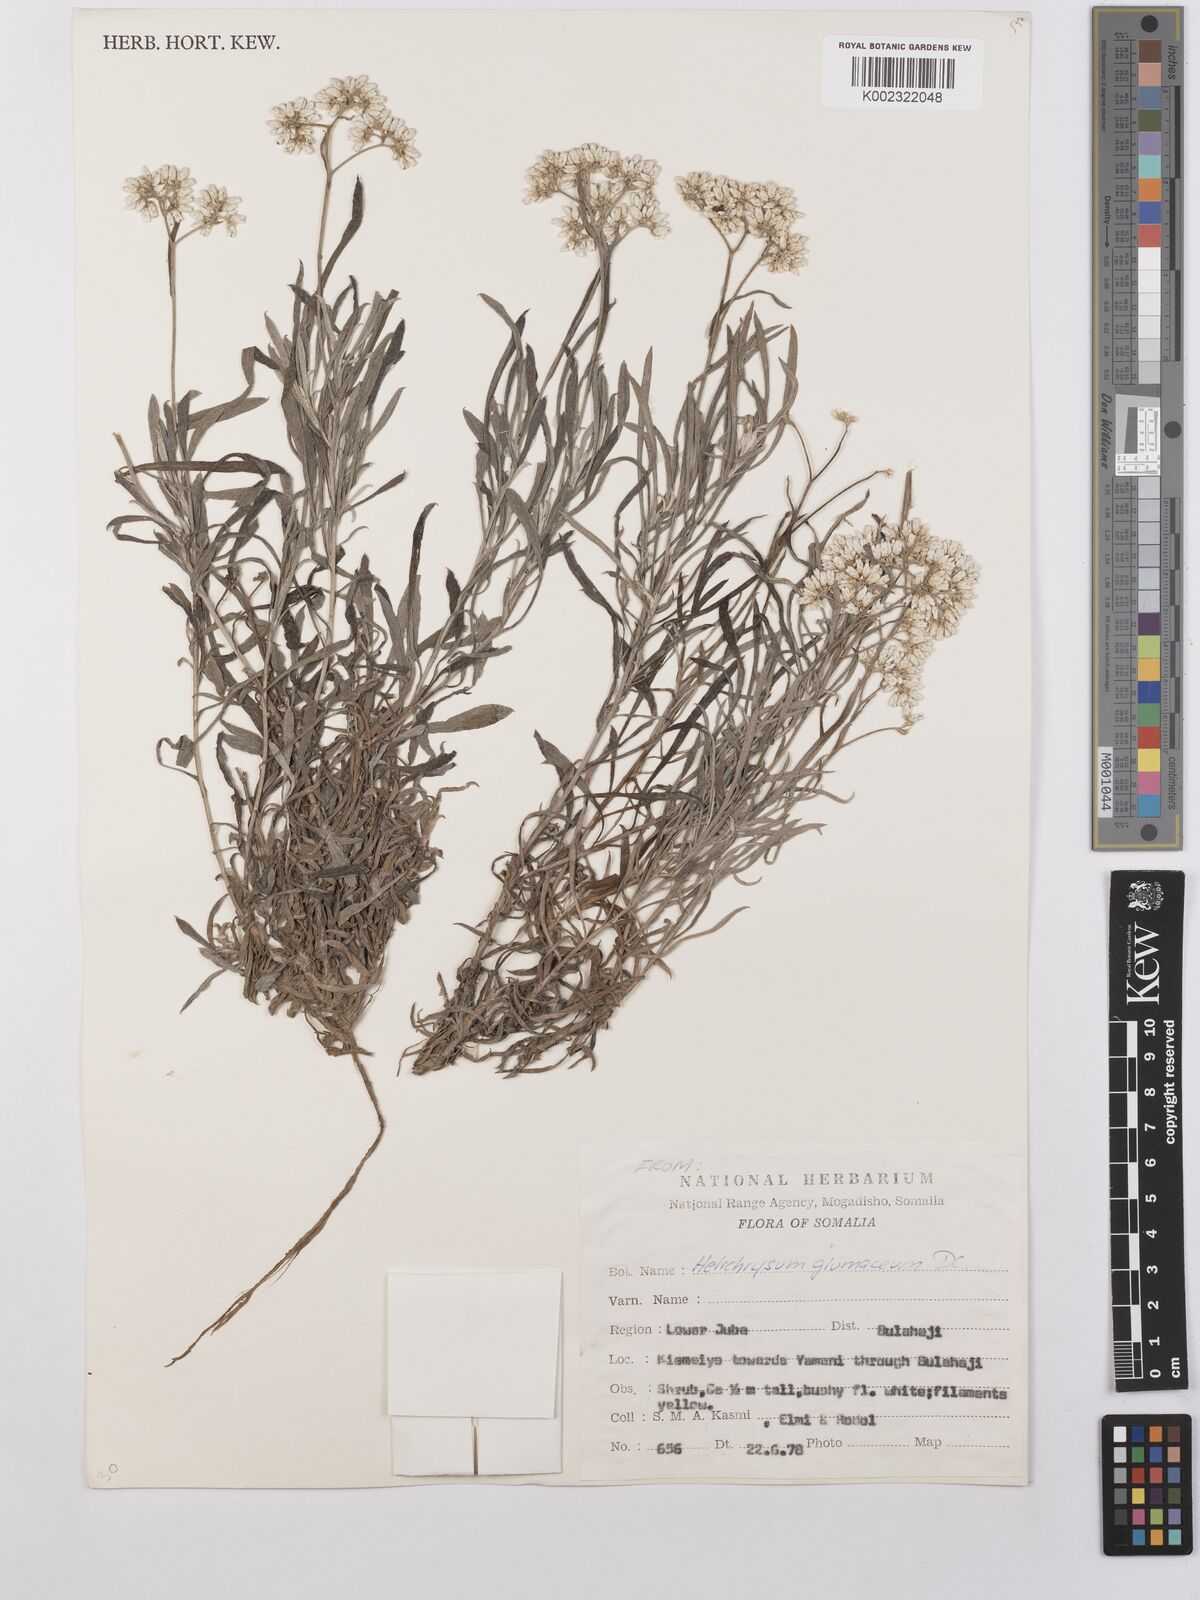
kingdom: Plantae
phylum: Tracheophyta
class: Magnoliopsida
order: Asterales
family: Asteraceae
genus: Helichrysum
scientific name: Helichrysum glumaceum
